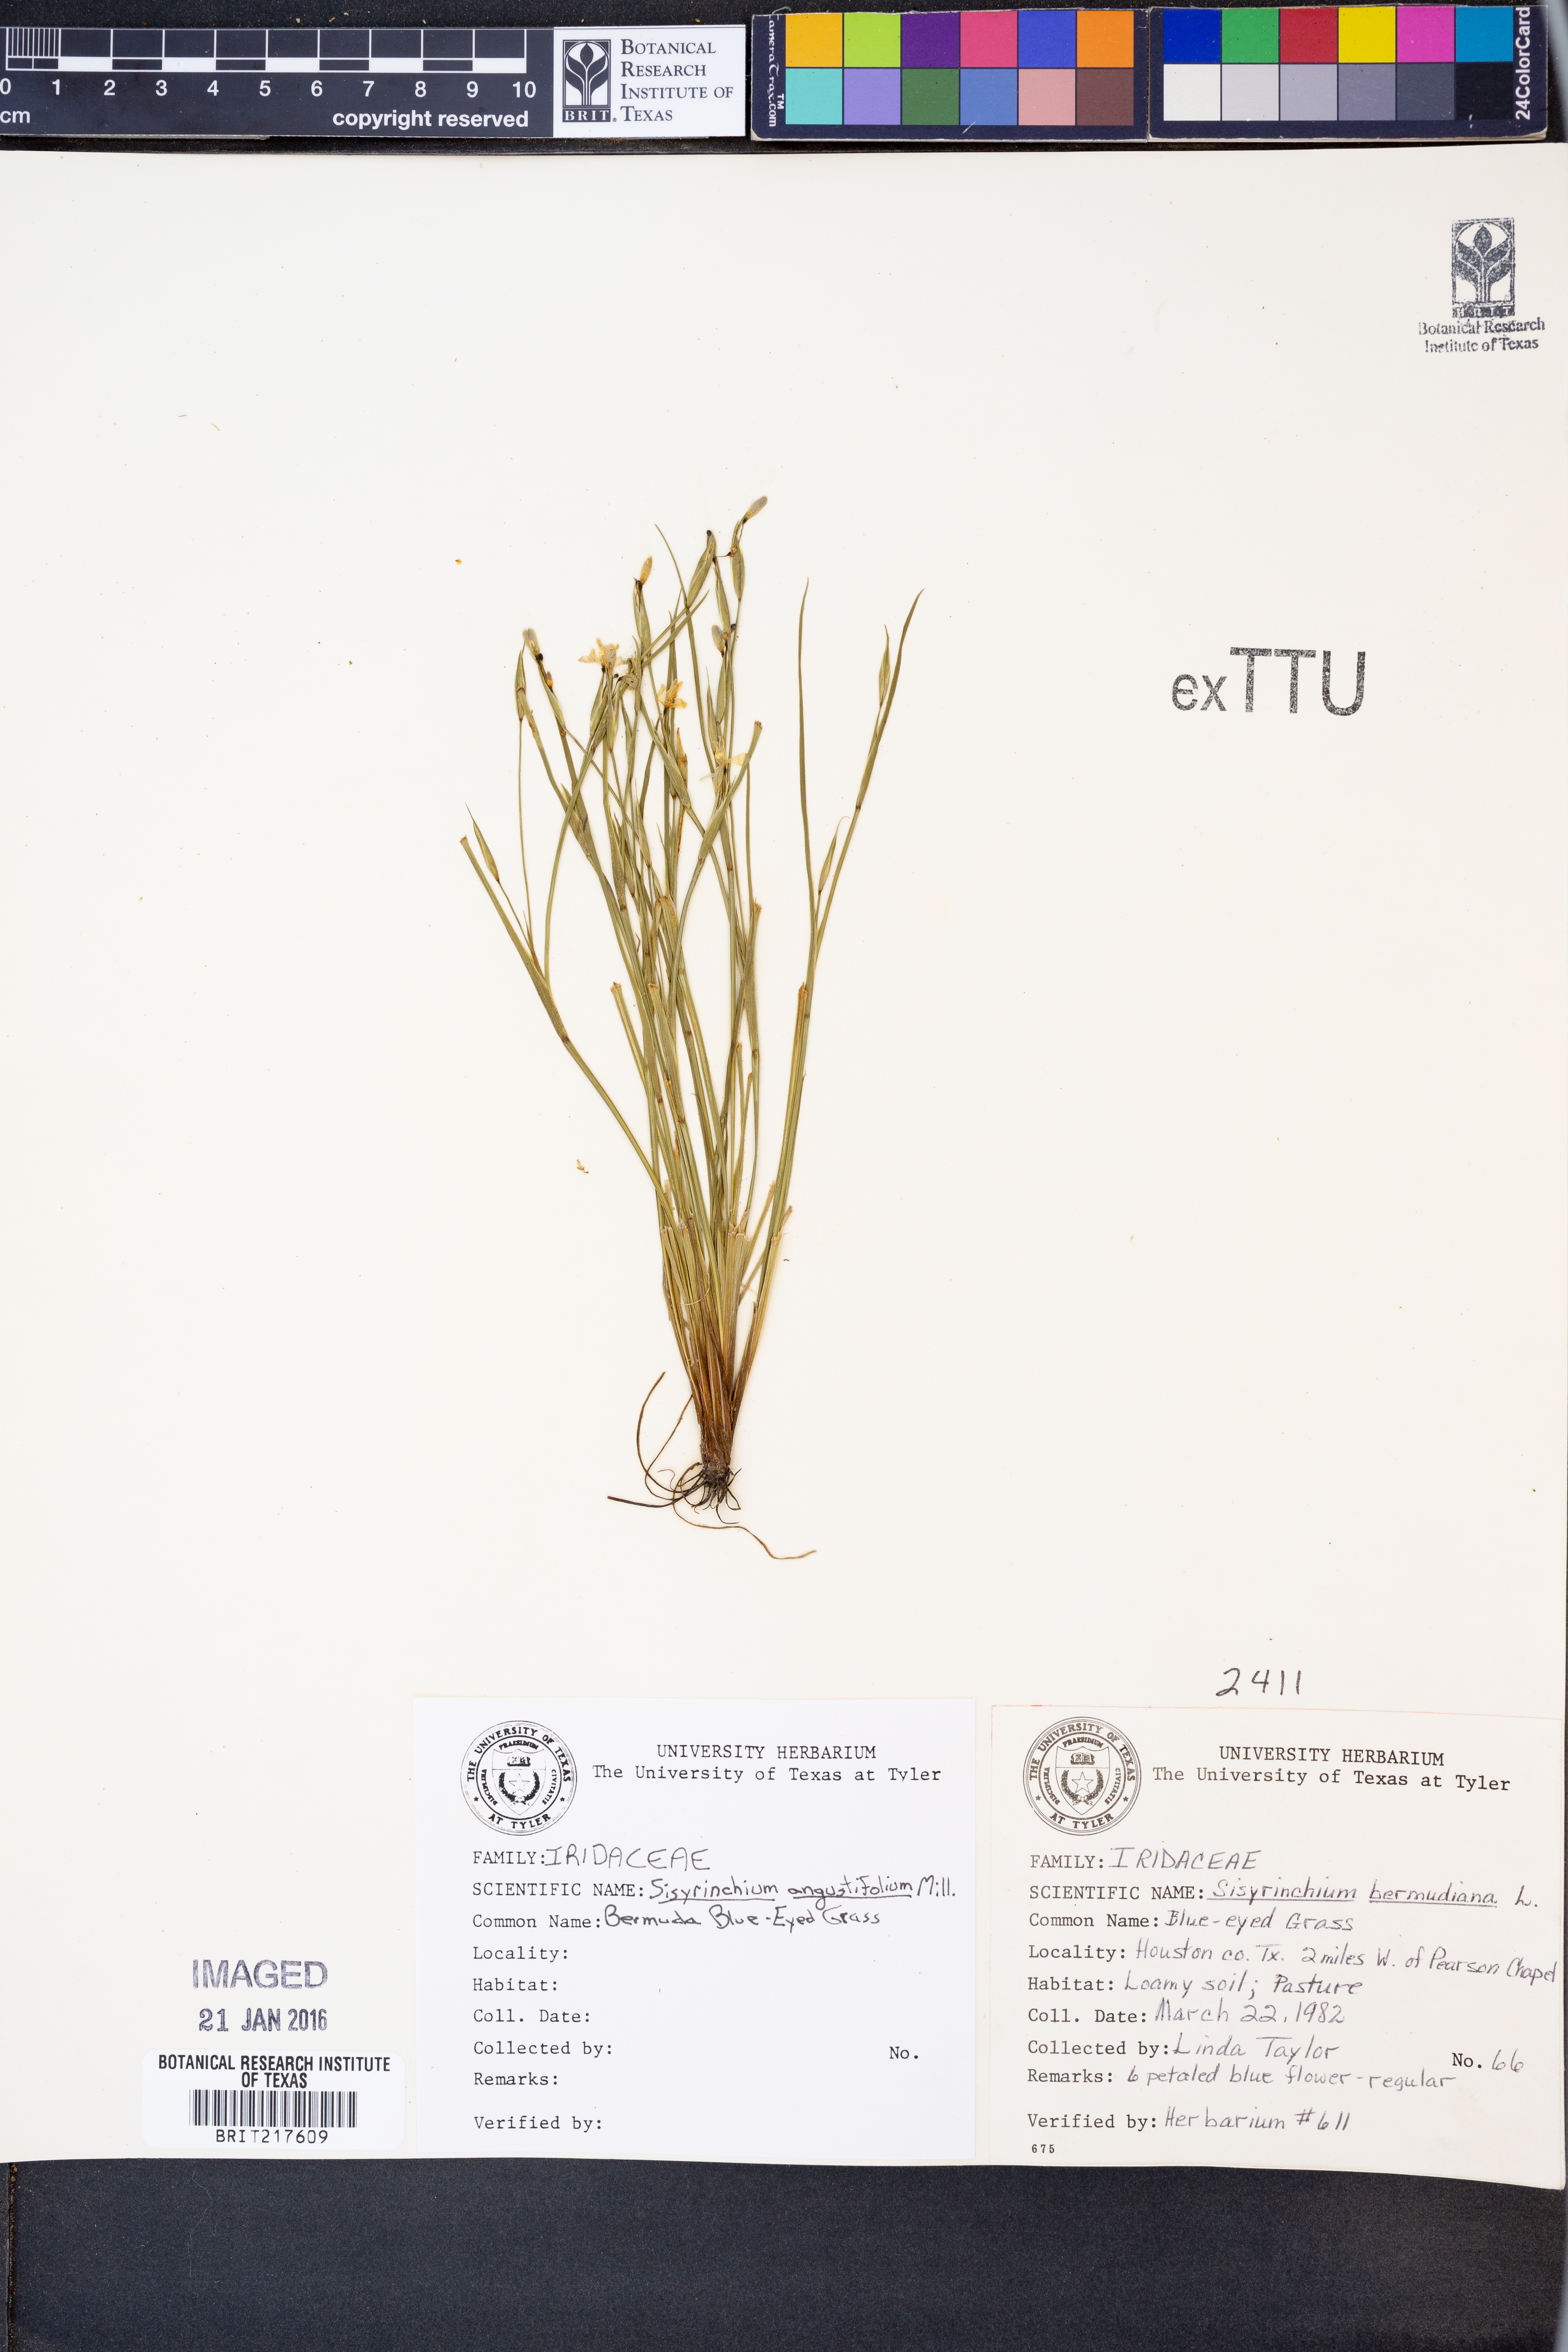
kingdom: Plantae
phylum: Tracheophyta
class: Liliopsida
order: Asparagales
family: Iridaceae
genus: Sisyrinchium
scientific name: Sisyrinchium angustifolium
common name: Narrow-leaf blue-eyed-grass
